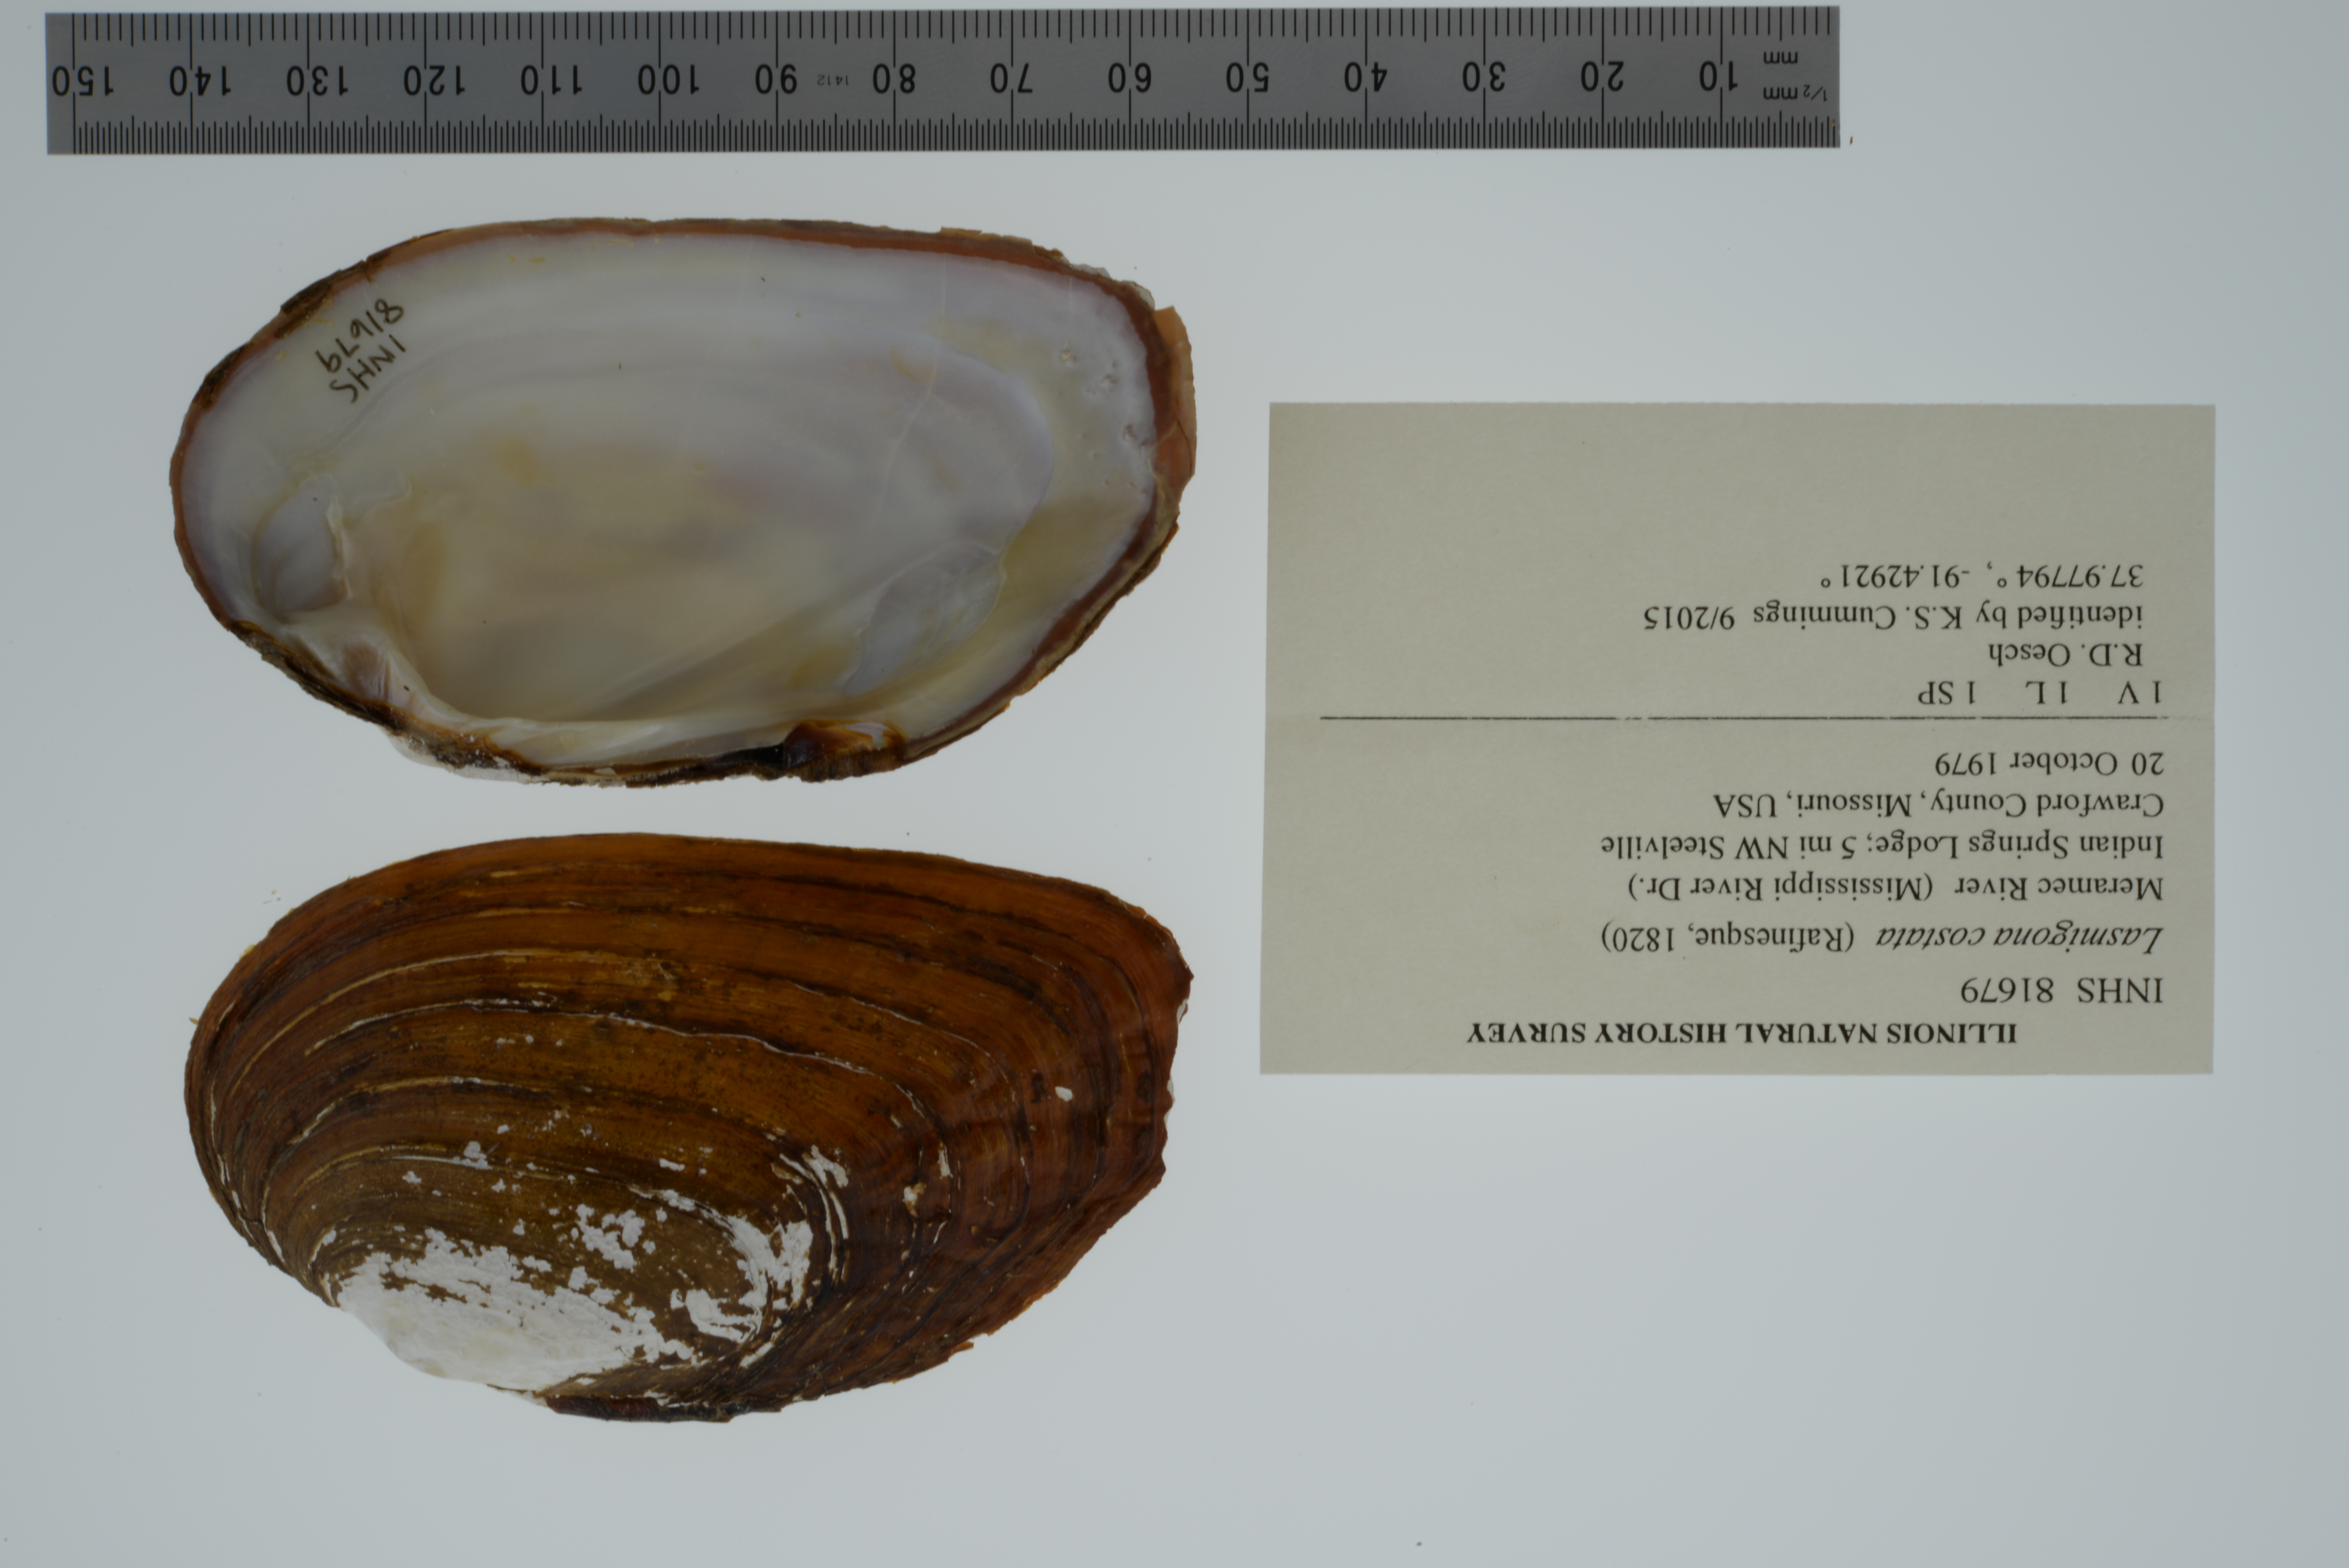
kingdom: Animalia
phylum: Mollusca
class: Bivalvia
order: Unionida
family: Unionidae
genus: Lasmigona
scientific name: Lasmigona costata
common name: Flutedshell
